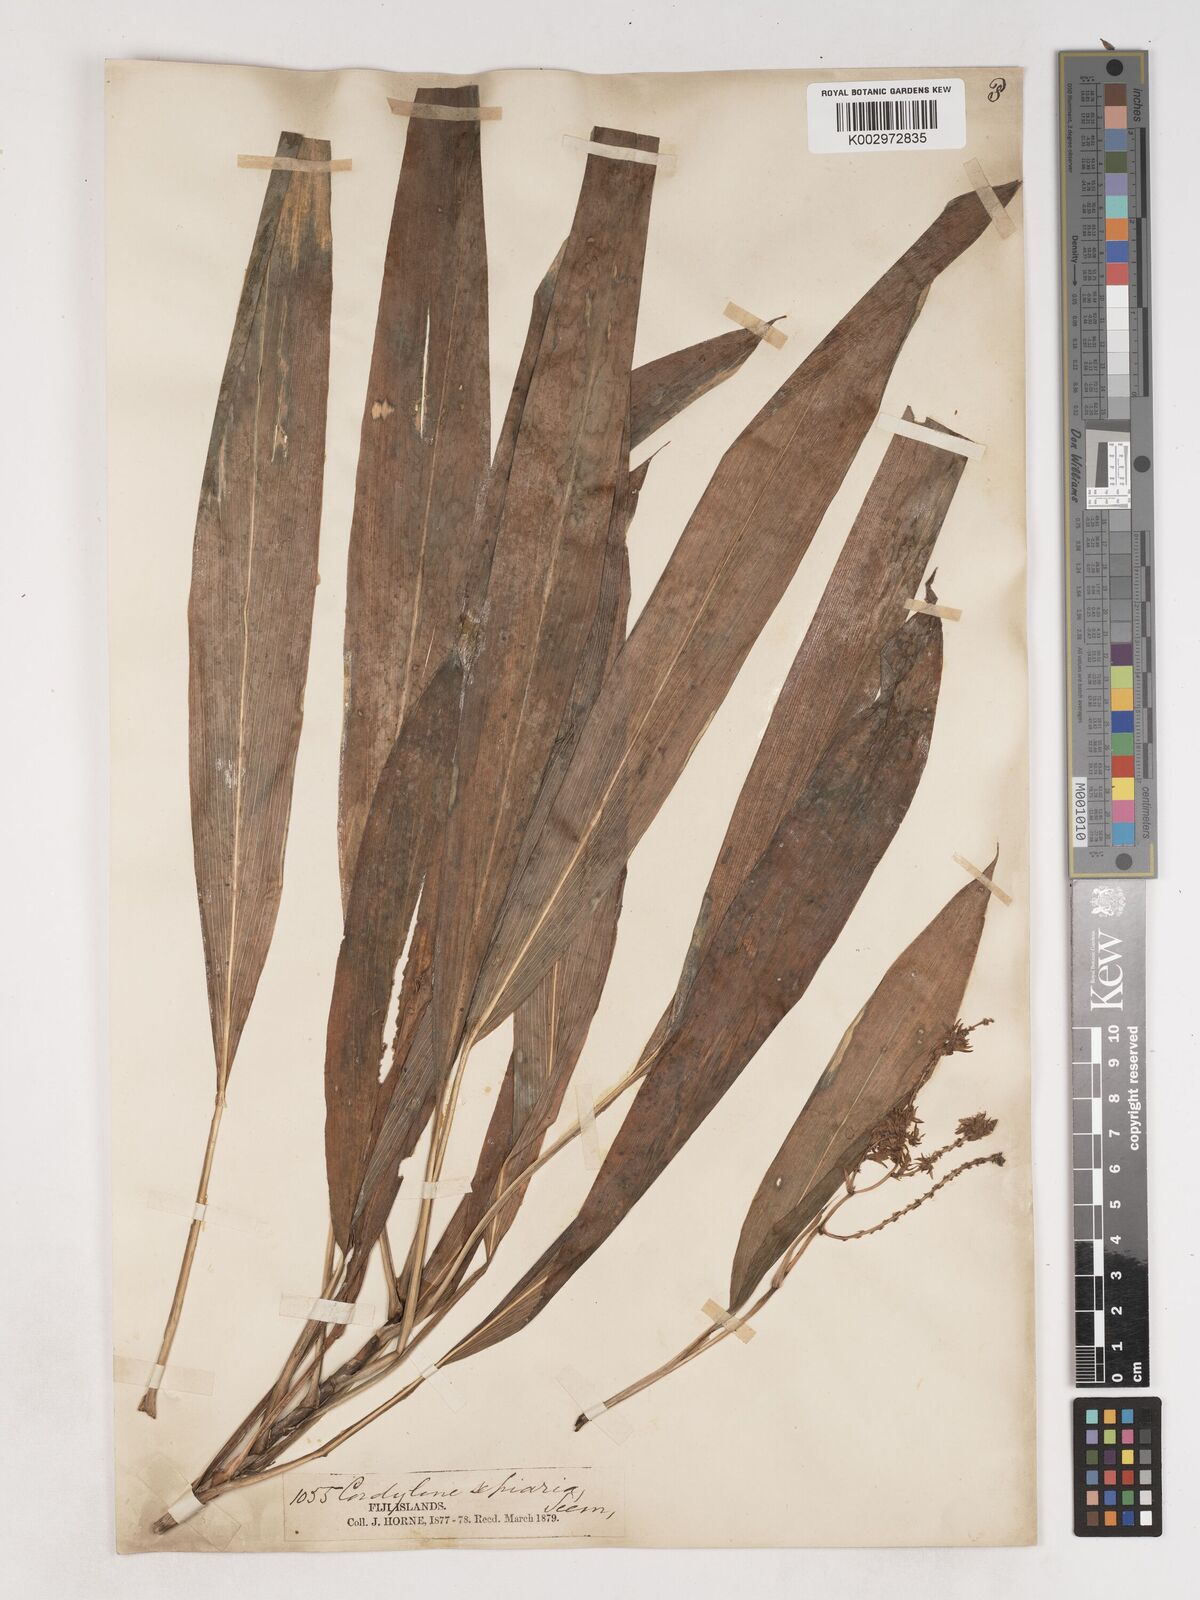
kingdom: Plantae
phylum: Tracheophyta
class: Liliopsida
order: Asparagales
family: Asparagaceae
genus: Cordyline
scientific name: Cordyline fruticosa
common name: Good-luck-plant
